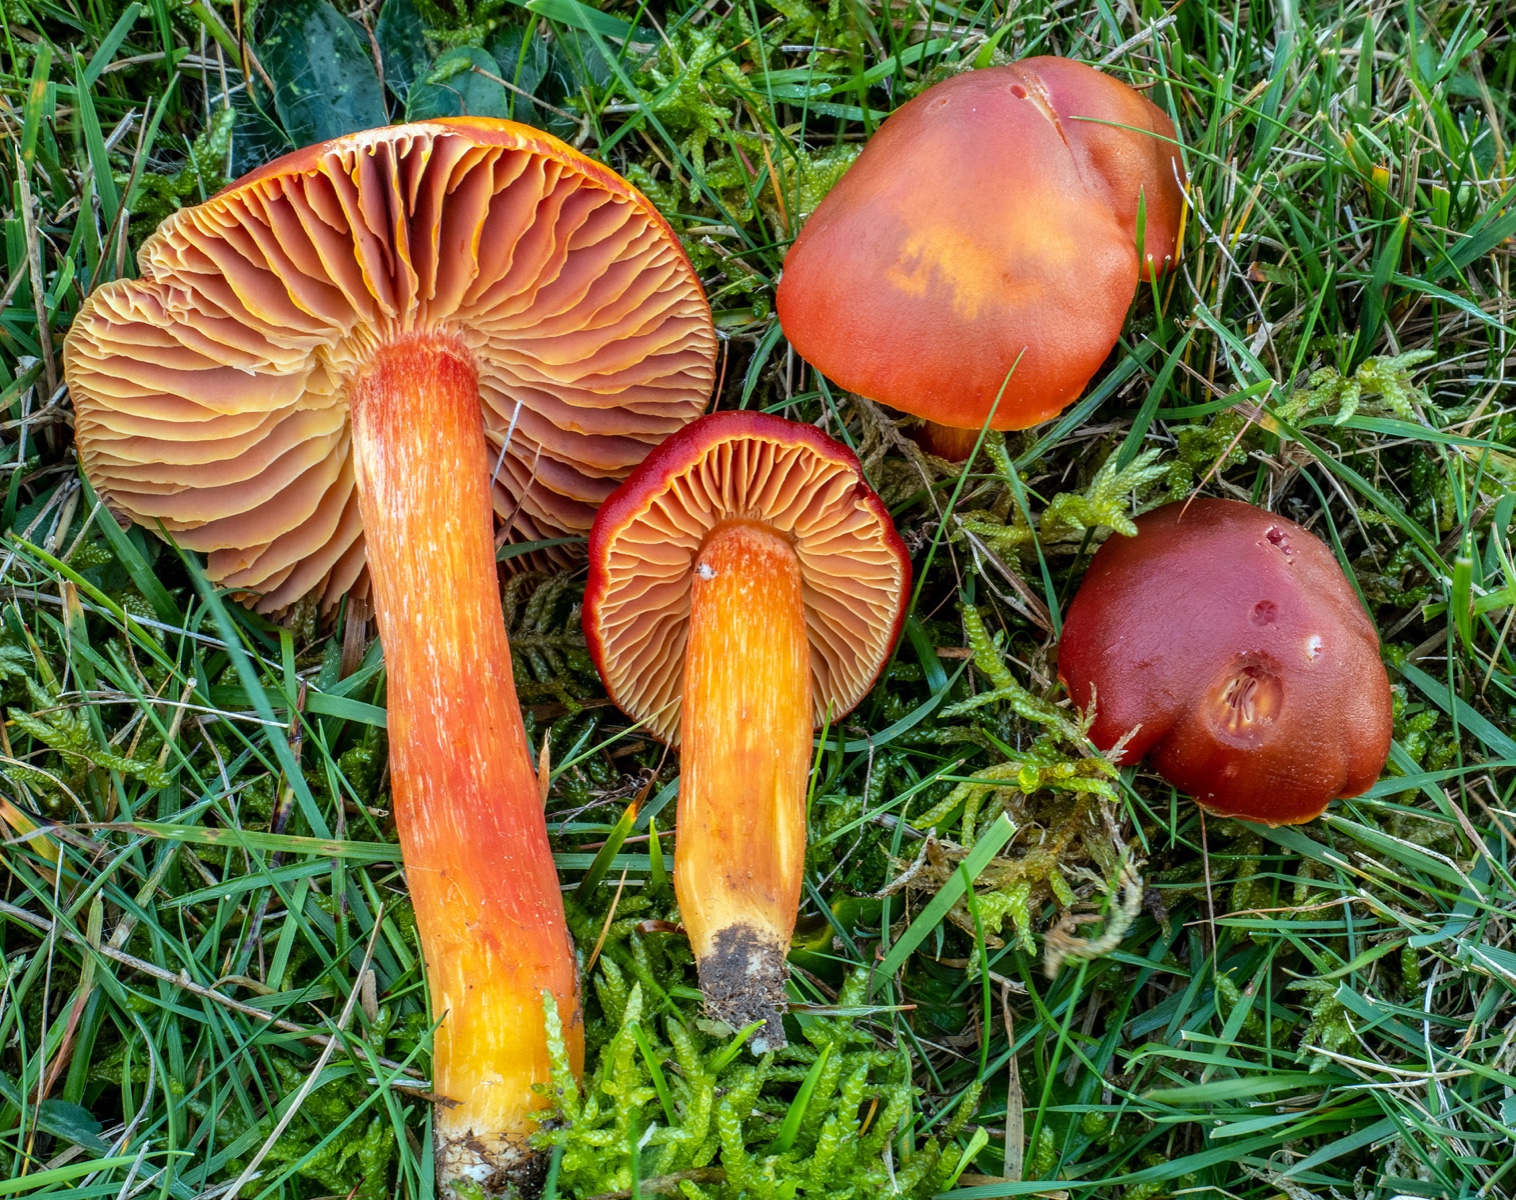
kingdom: Fungi
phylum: Basidiomycota
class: Agaricomycetes
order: Agaricales
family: Hygrophoraceae
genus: Hygrocybe
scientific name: Hygrocybe punicea
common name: skarlagen-vokshat
